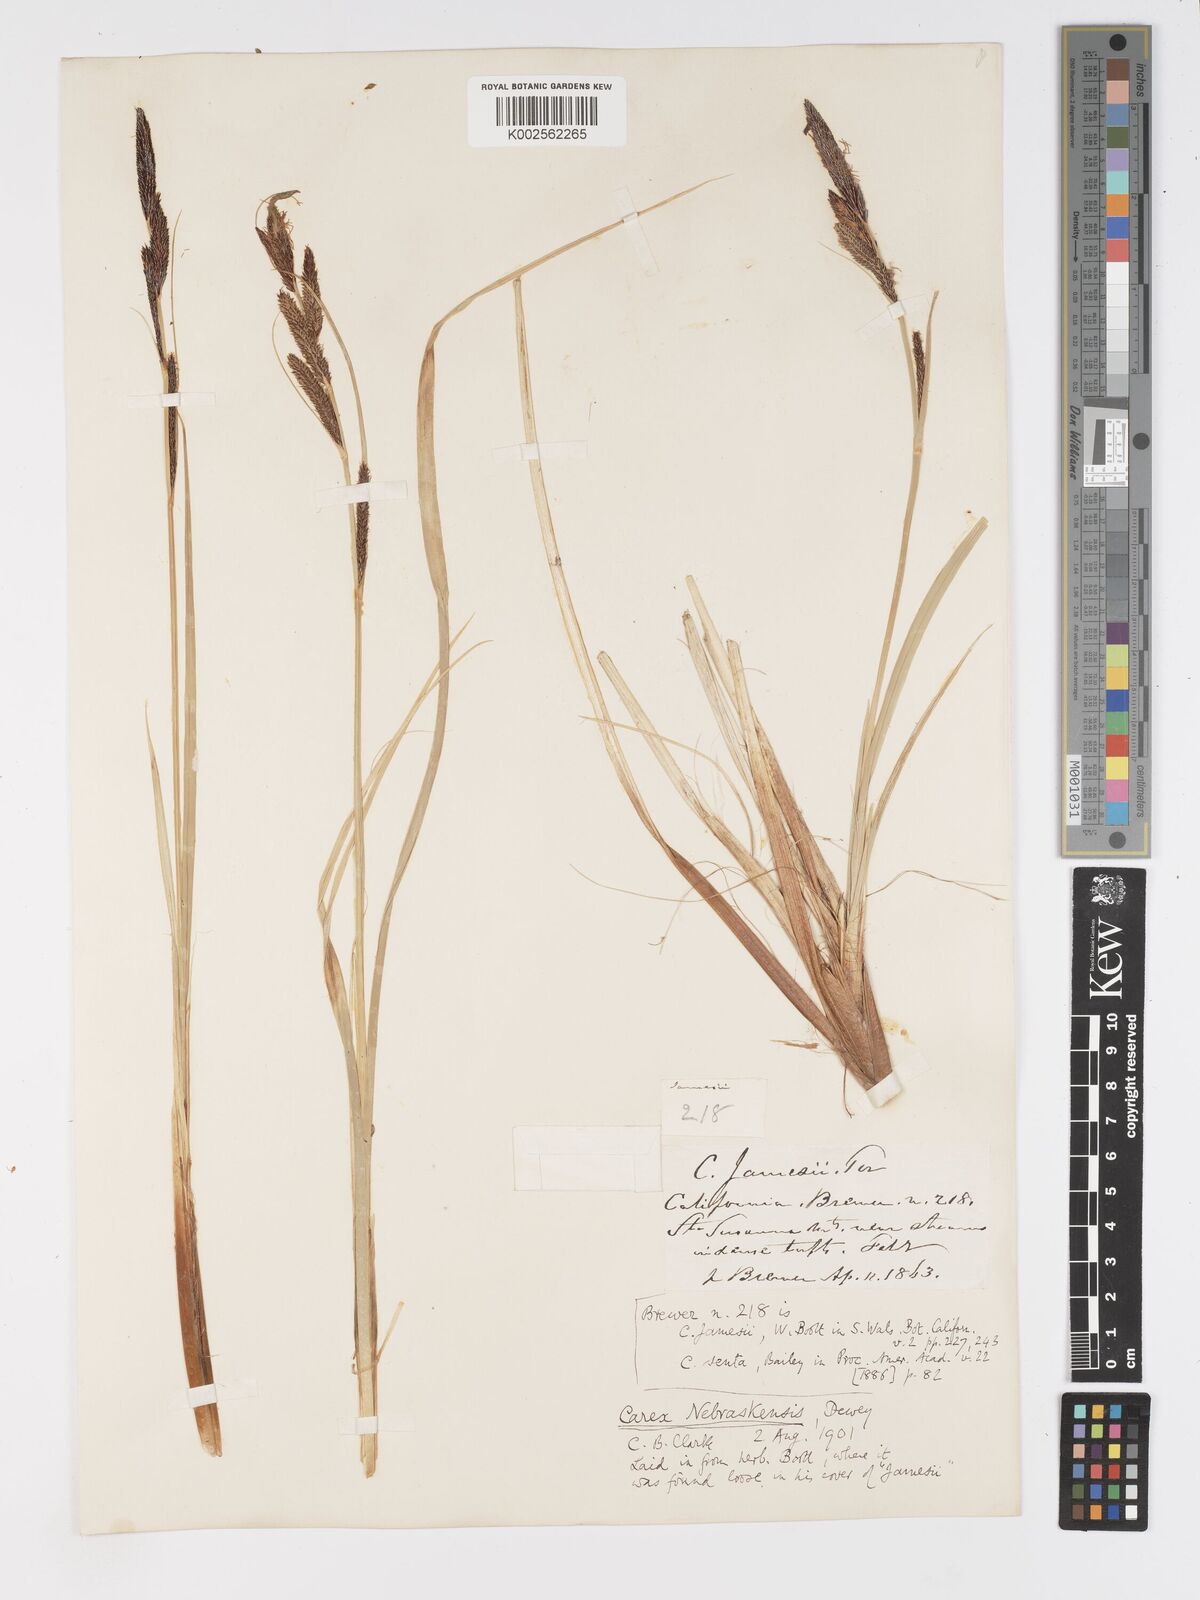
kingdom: Plantae
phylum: Tracheophyta
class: Liliopsida
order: Poales
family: Cyperaceae
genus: Carex
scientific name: Carex nebrascensis
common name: Nebraska sedge
